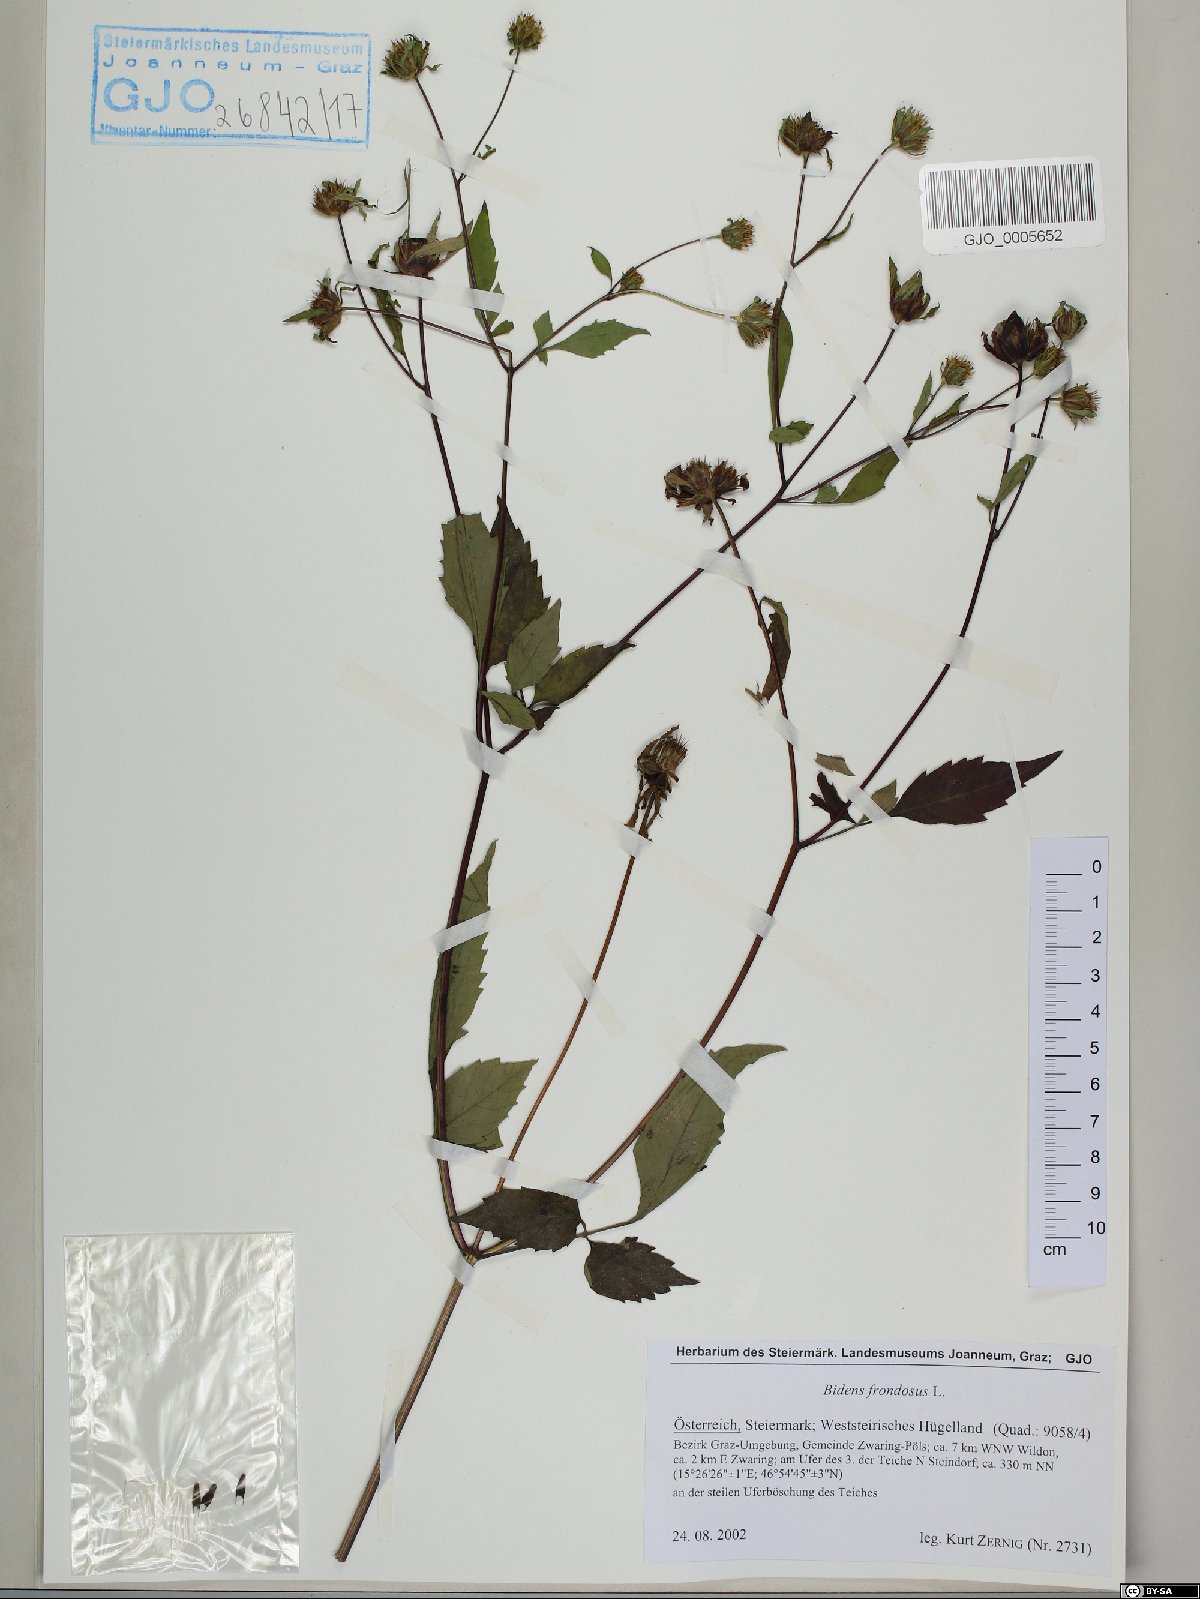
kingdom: Plantae
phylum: Tracheophyta
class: Magnoliopsida
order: Asterales
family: Asteraceae
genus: Bidens
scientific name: Bidens frondosa
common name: Beggarticks
